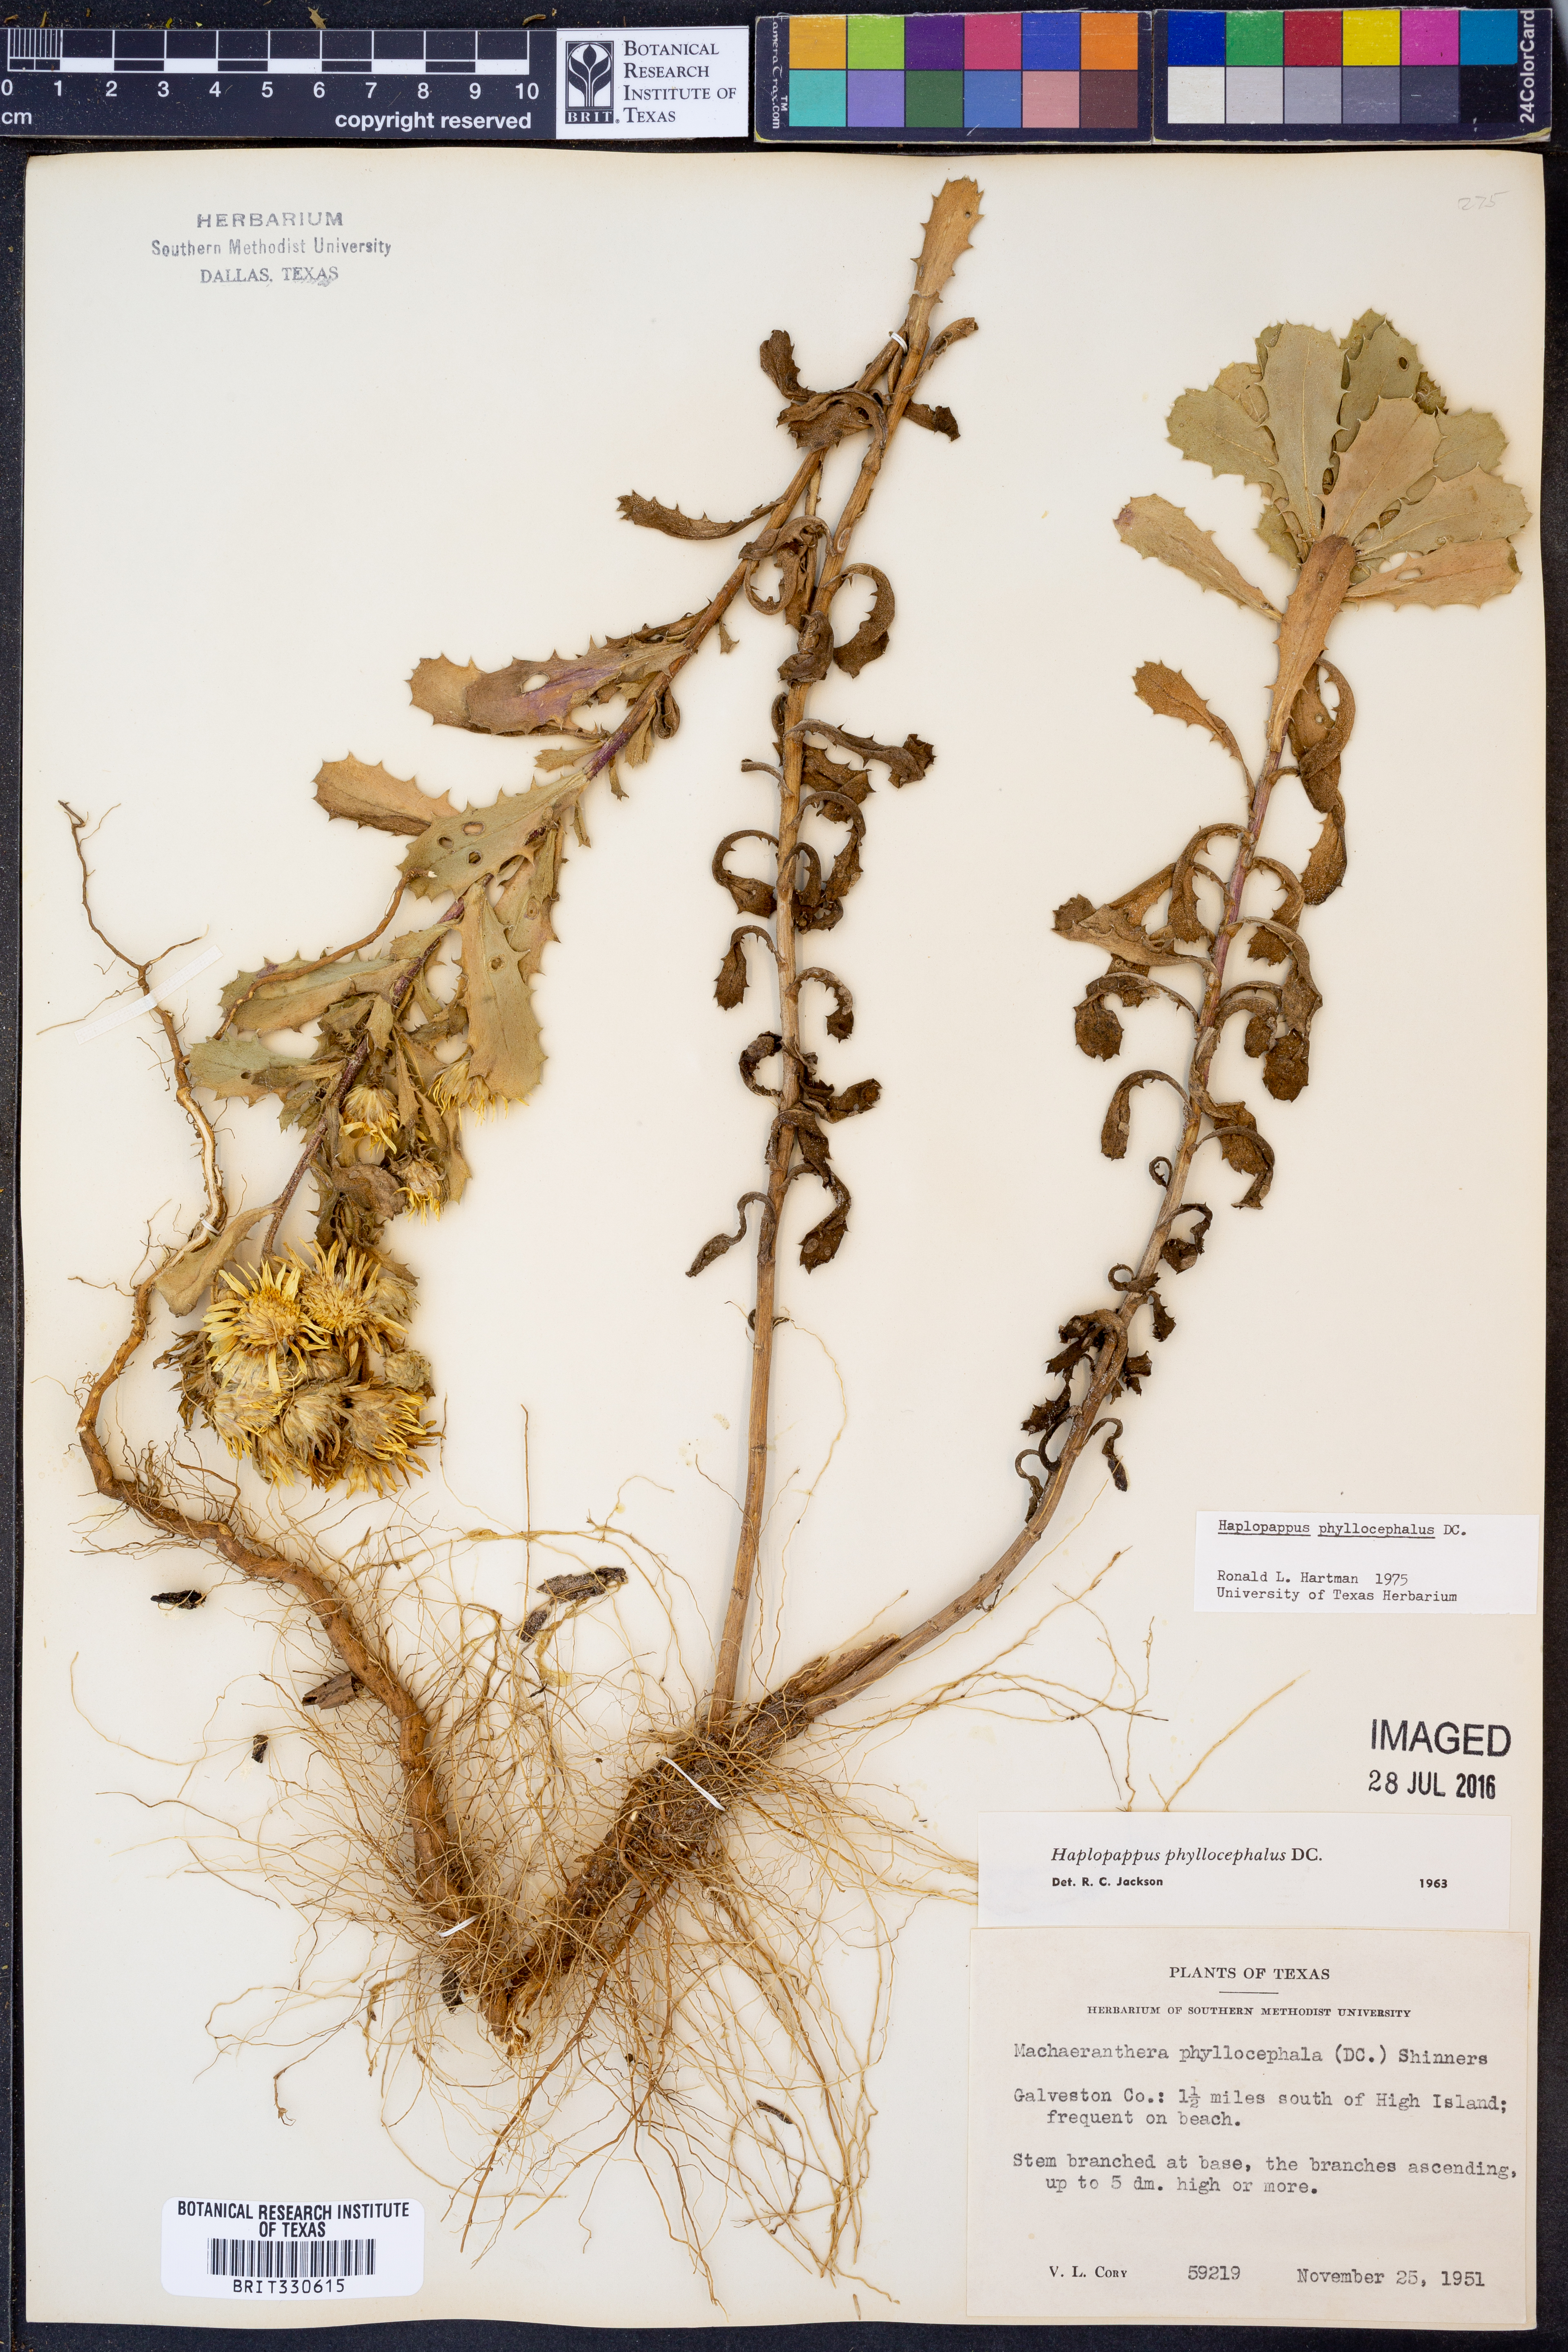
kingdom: Plantae
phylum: Tracheophyta
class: Magnoliopsida
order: Asterales
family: Asteraceae
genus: Rayjacksonia
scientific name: Rayjacksonia phyllocephala
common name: Gulf coast camphor daisy
